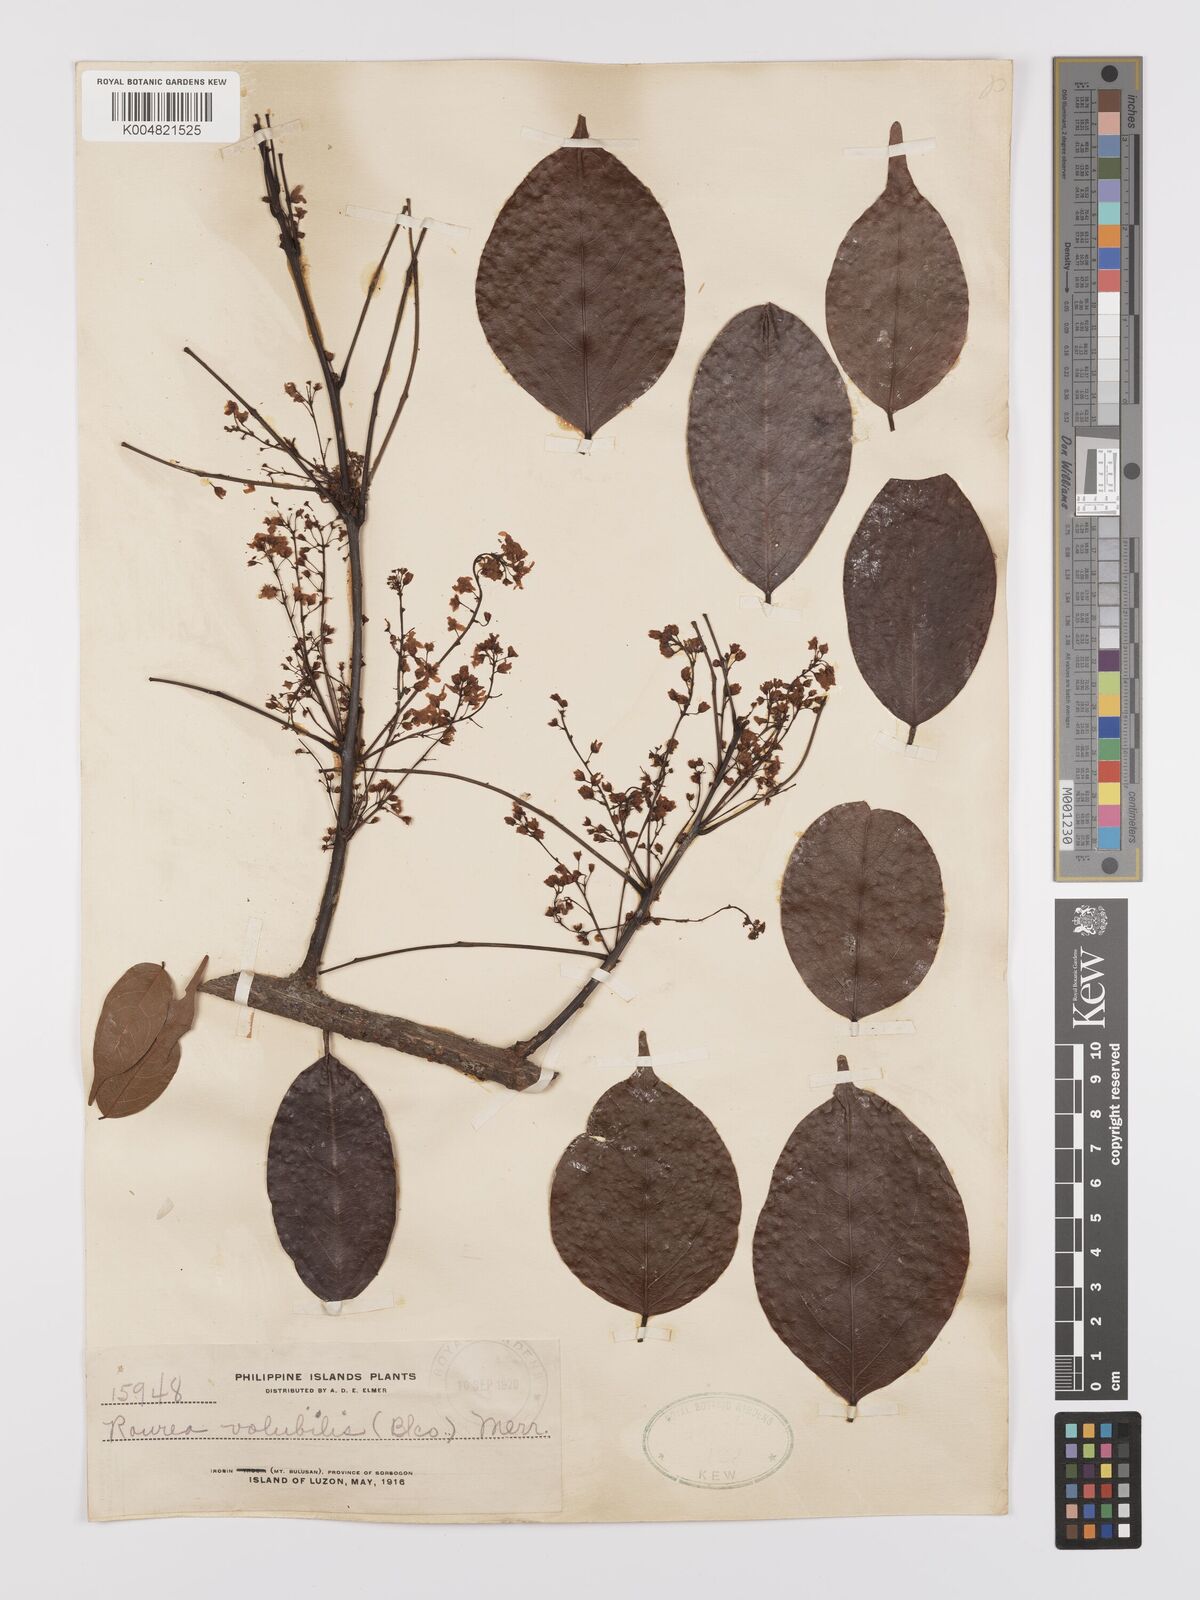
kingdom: Plantae
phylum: Tracheophyta
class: Magnoliopsida
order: Oxalidales
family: Connaraceae
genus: Rourea
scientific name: Rourea minor
